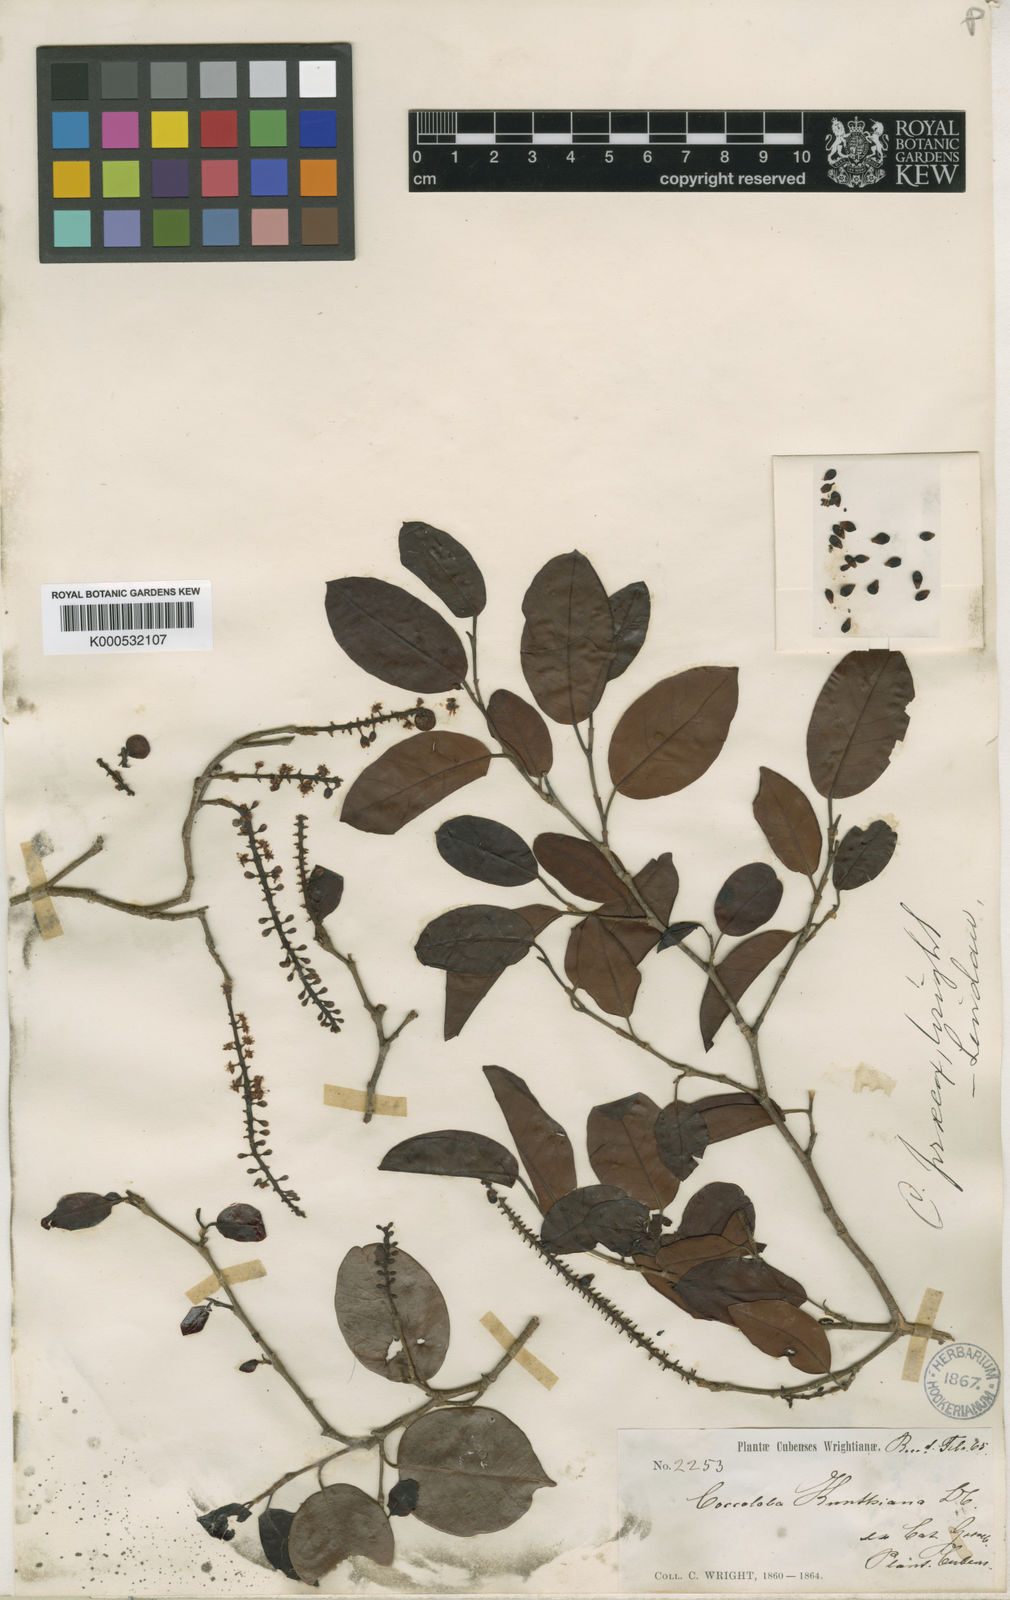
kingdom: Plantae
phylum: Tracheophyta
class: Magnoliopsida
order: Caryophyllales
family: Polygonaceae
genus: Coccoloba
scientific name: Coccoloba
